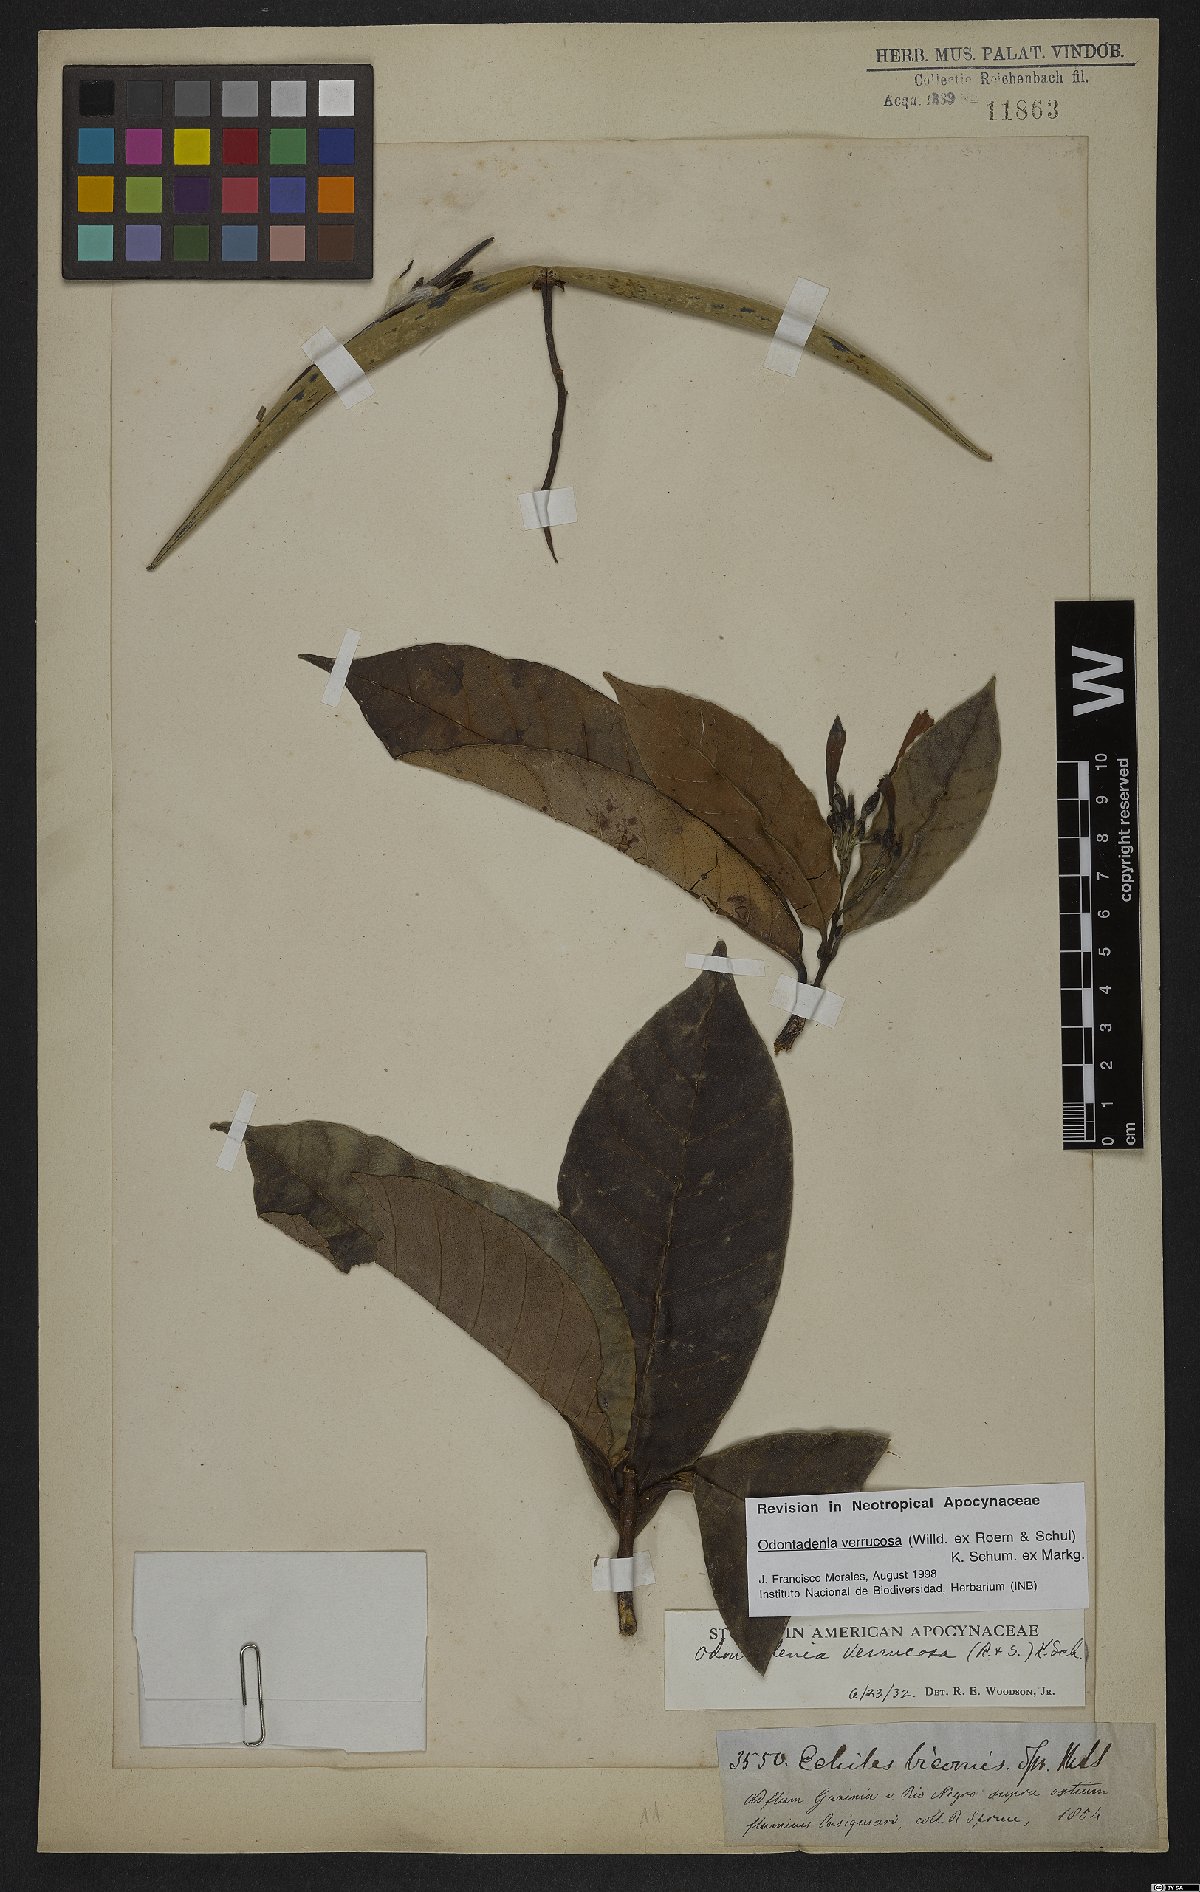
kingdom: Plantae
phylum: Tracheophyta
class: Magnoliopsida
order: Gentianales
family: Apocynaceae
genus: Odontadenia
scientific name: Odontadenia verrucosa
